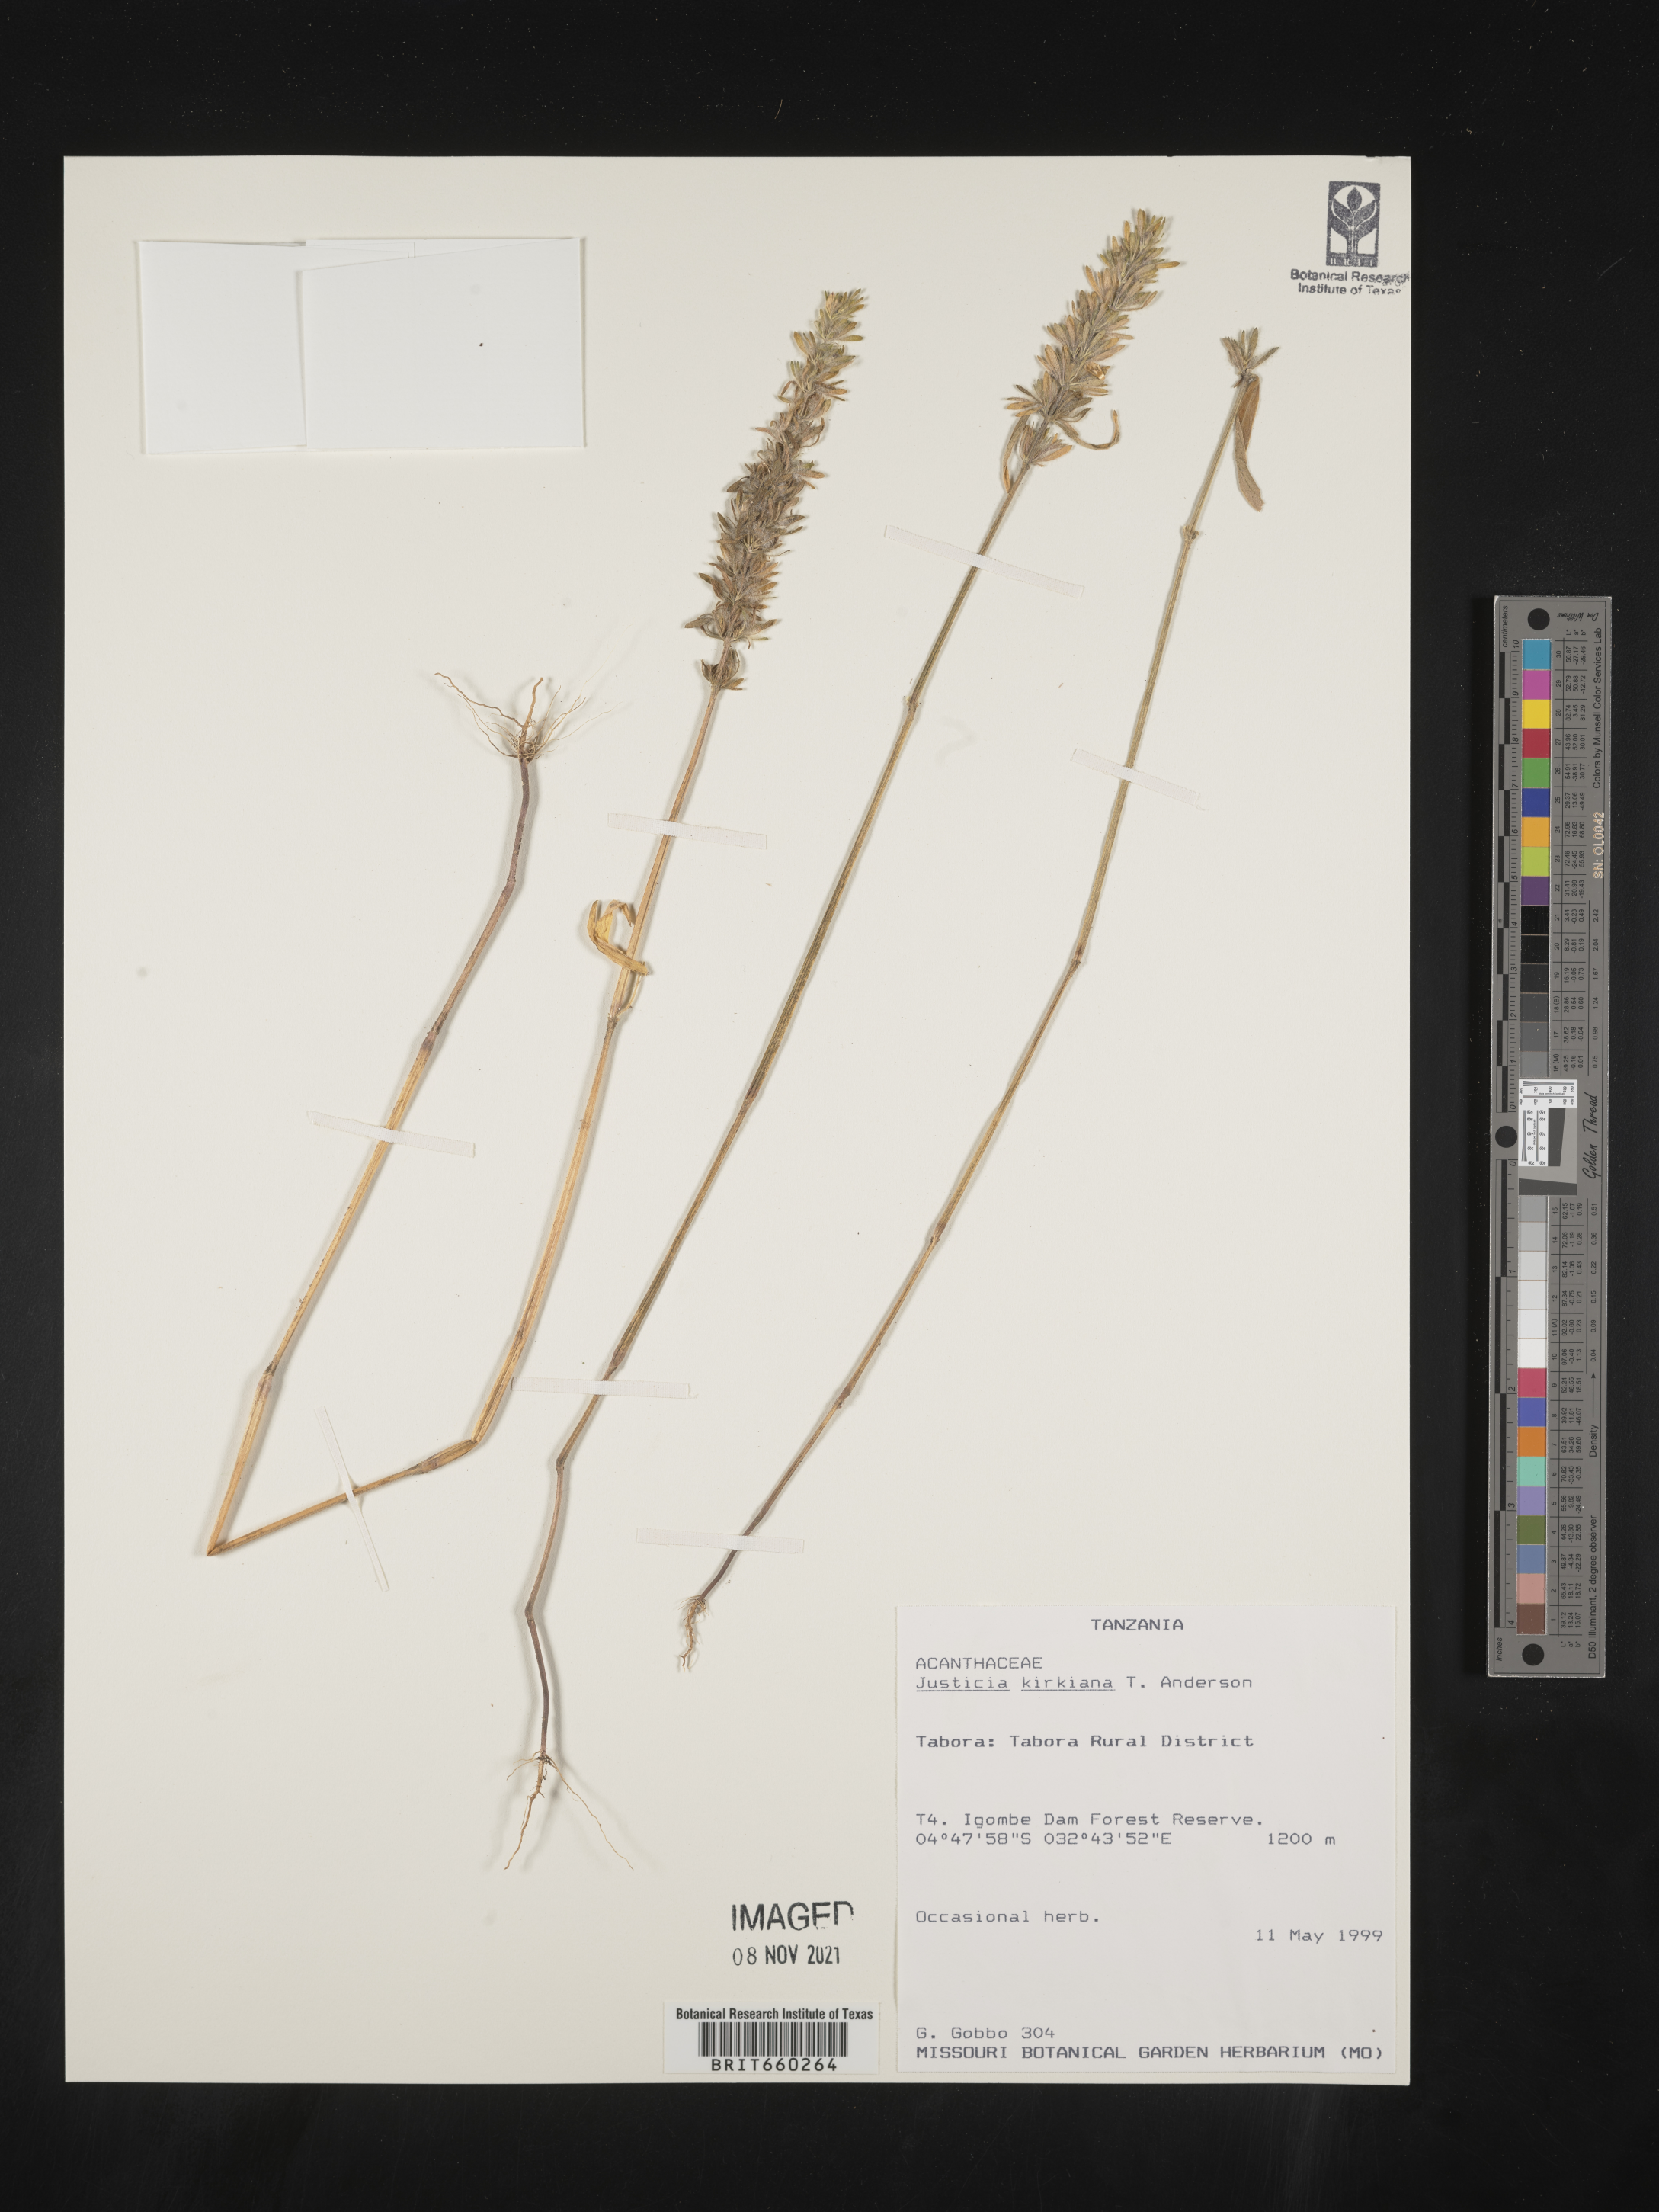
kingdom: Plantae
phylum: Tracheophyta
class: Magnoliopsida
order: Lamiales
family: Acanthaceae
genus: Justicia
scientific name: Justicia
